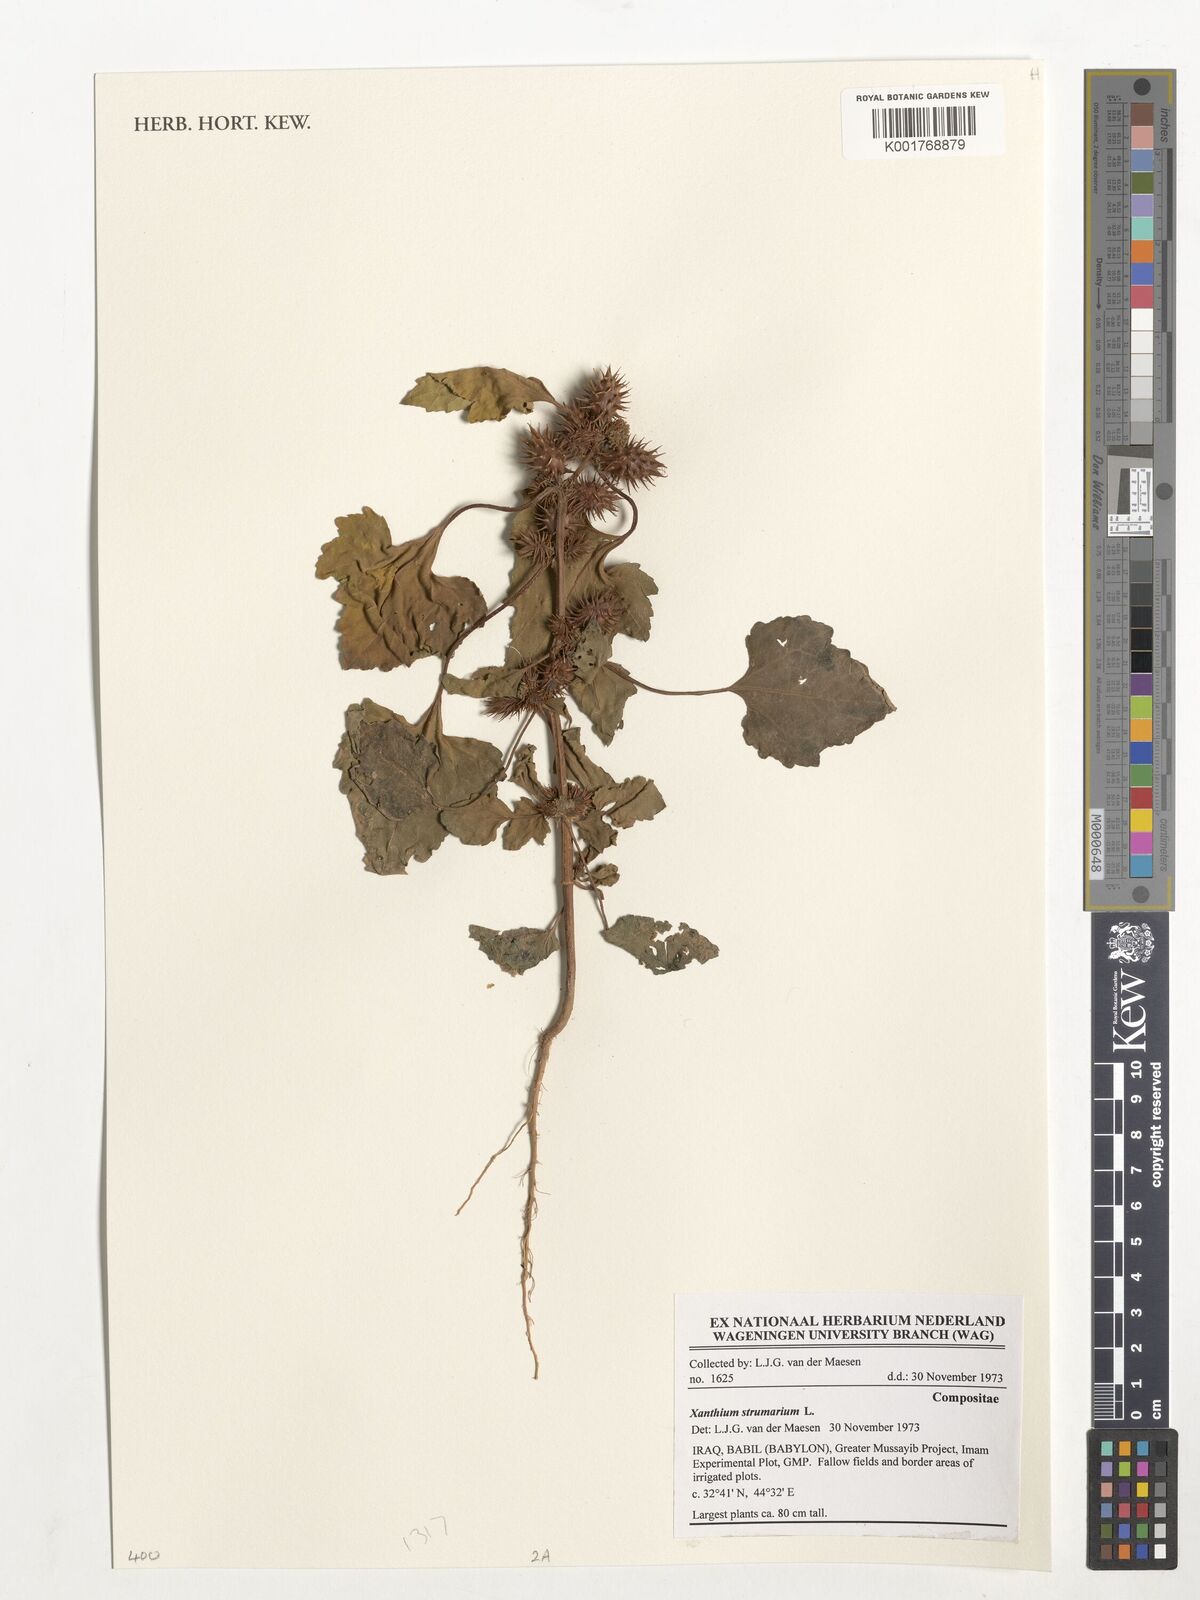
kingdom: Plantae
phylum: Tracheophyta
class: Magnoliopsida
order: Asterales
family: Asteraceae
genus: Xanthium
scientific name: Xanthium strumarium
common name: Rough cocklebur
